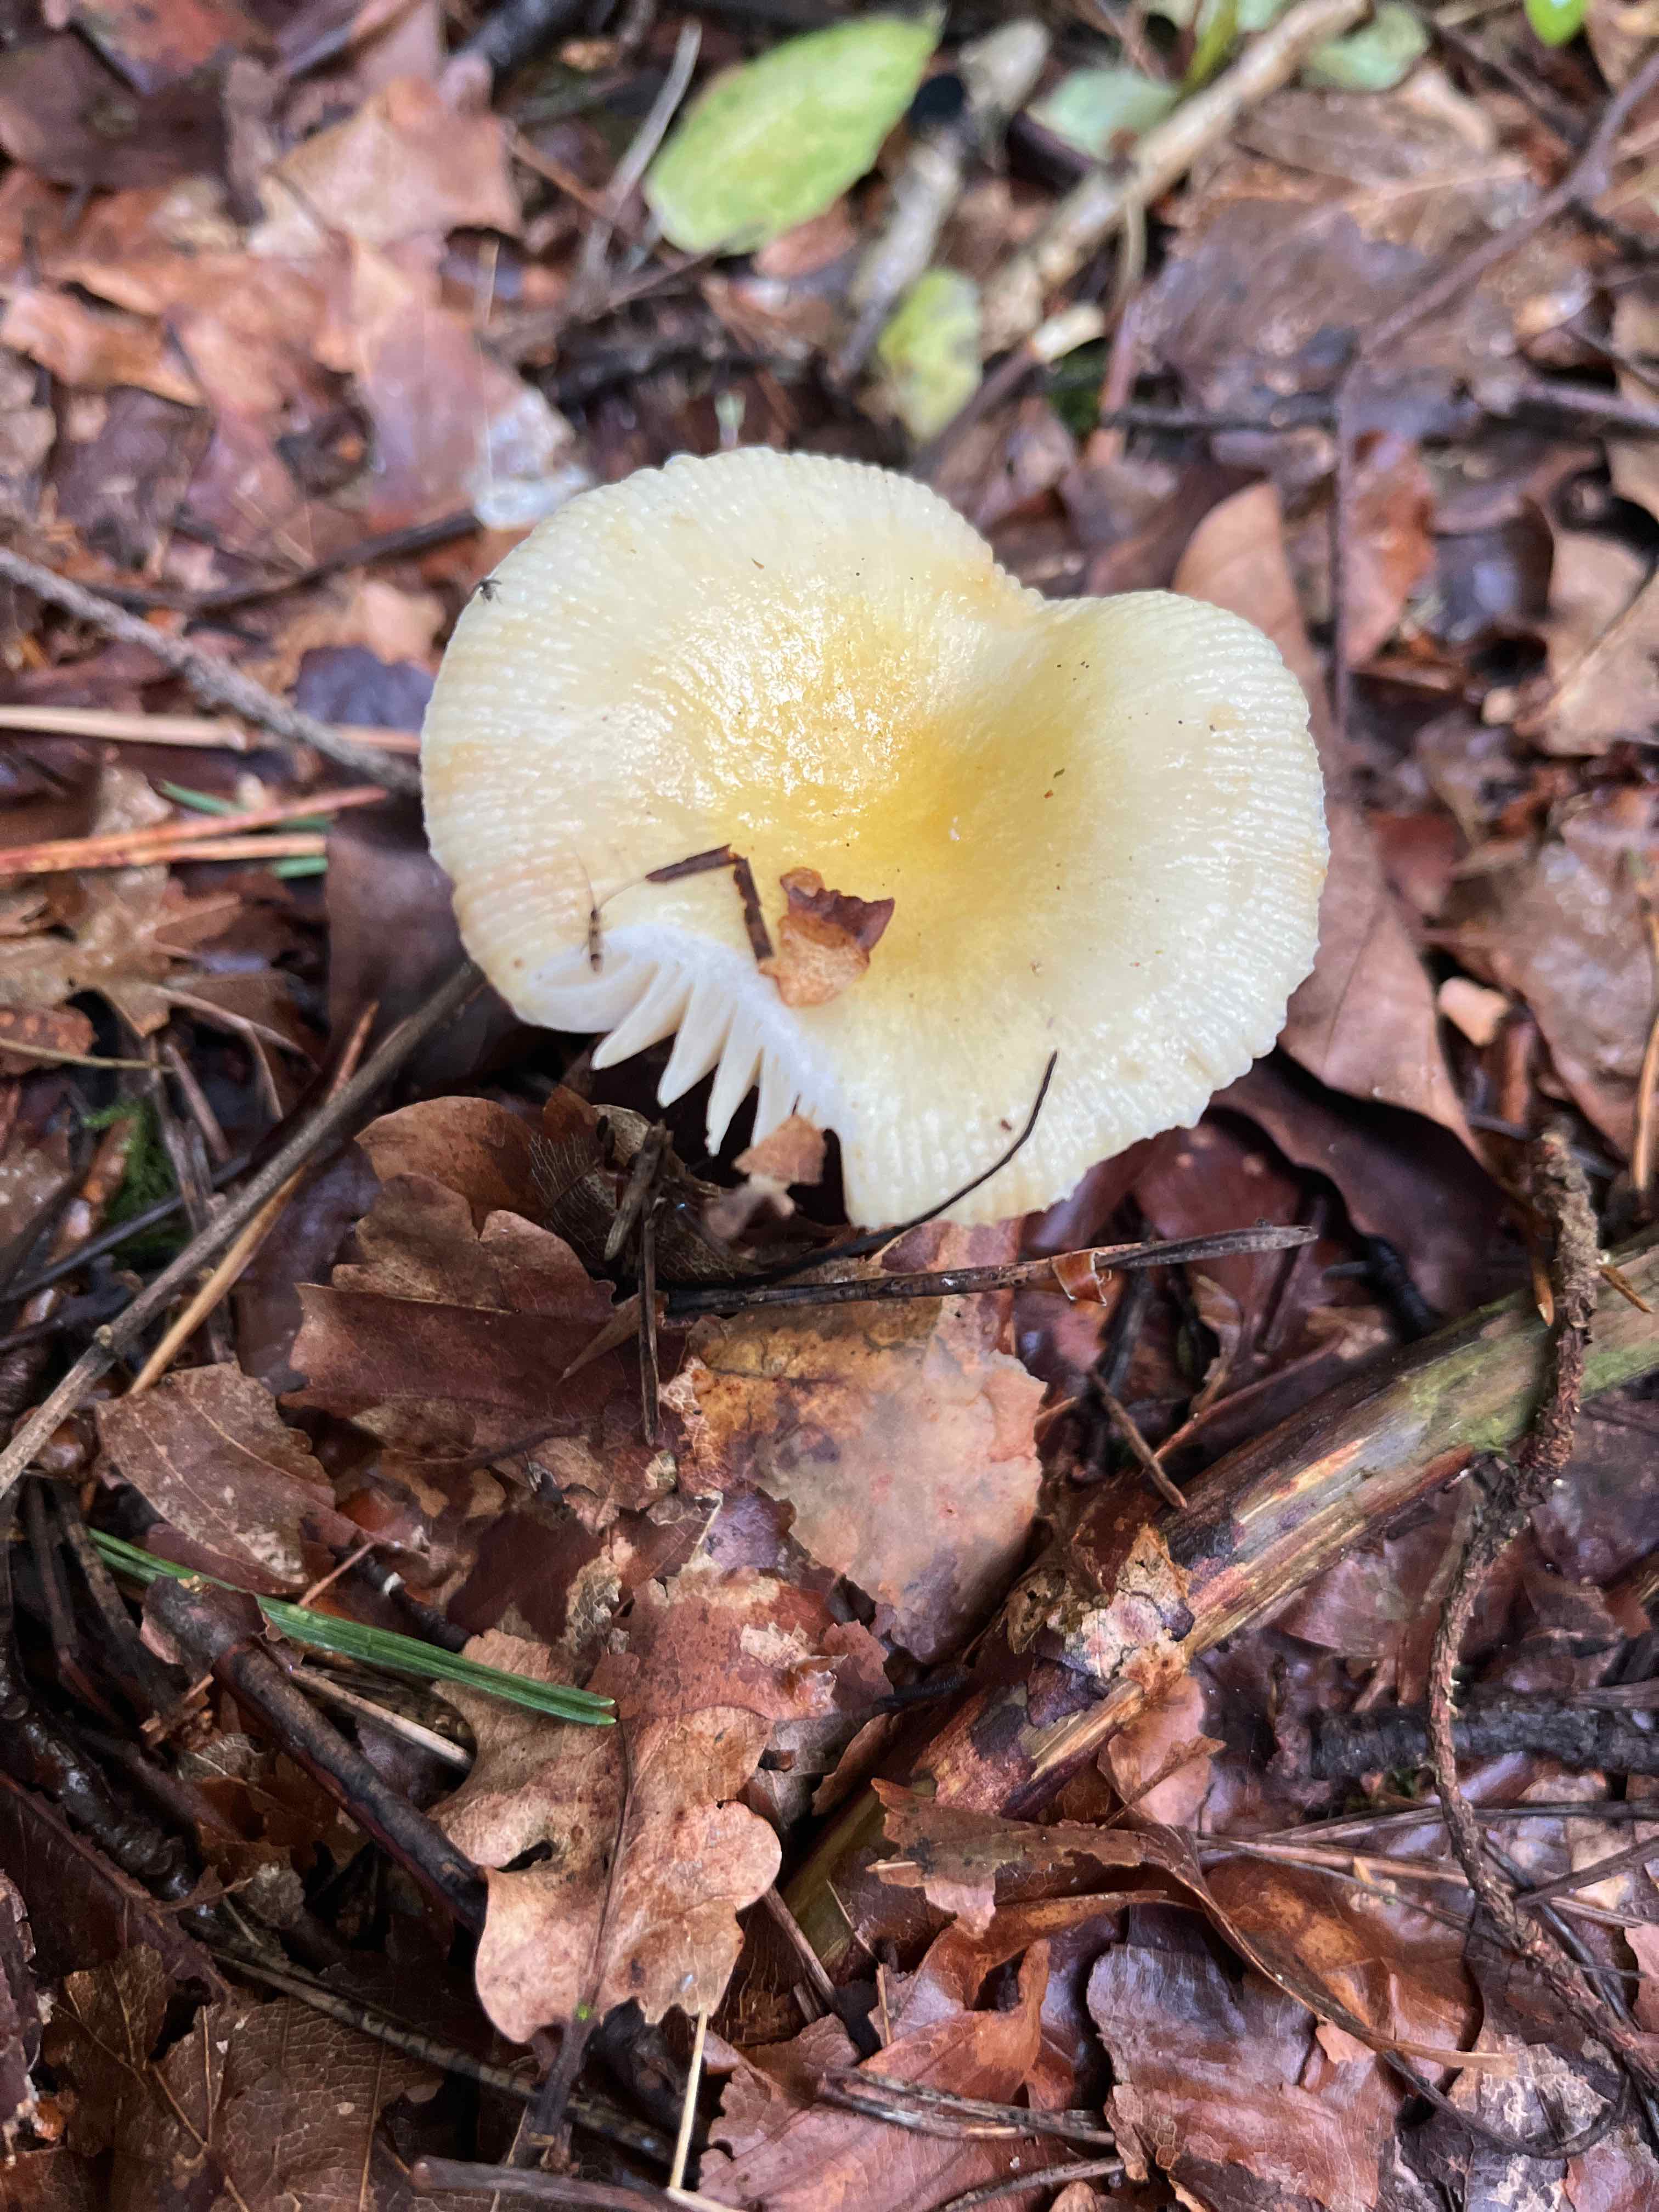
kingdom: Fungi
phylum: Basidiomycota
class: Agaricomycetes
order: Russulales
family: Russulaceae
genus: Russula
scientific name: Russula
